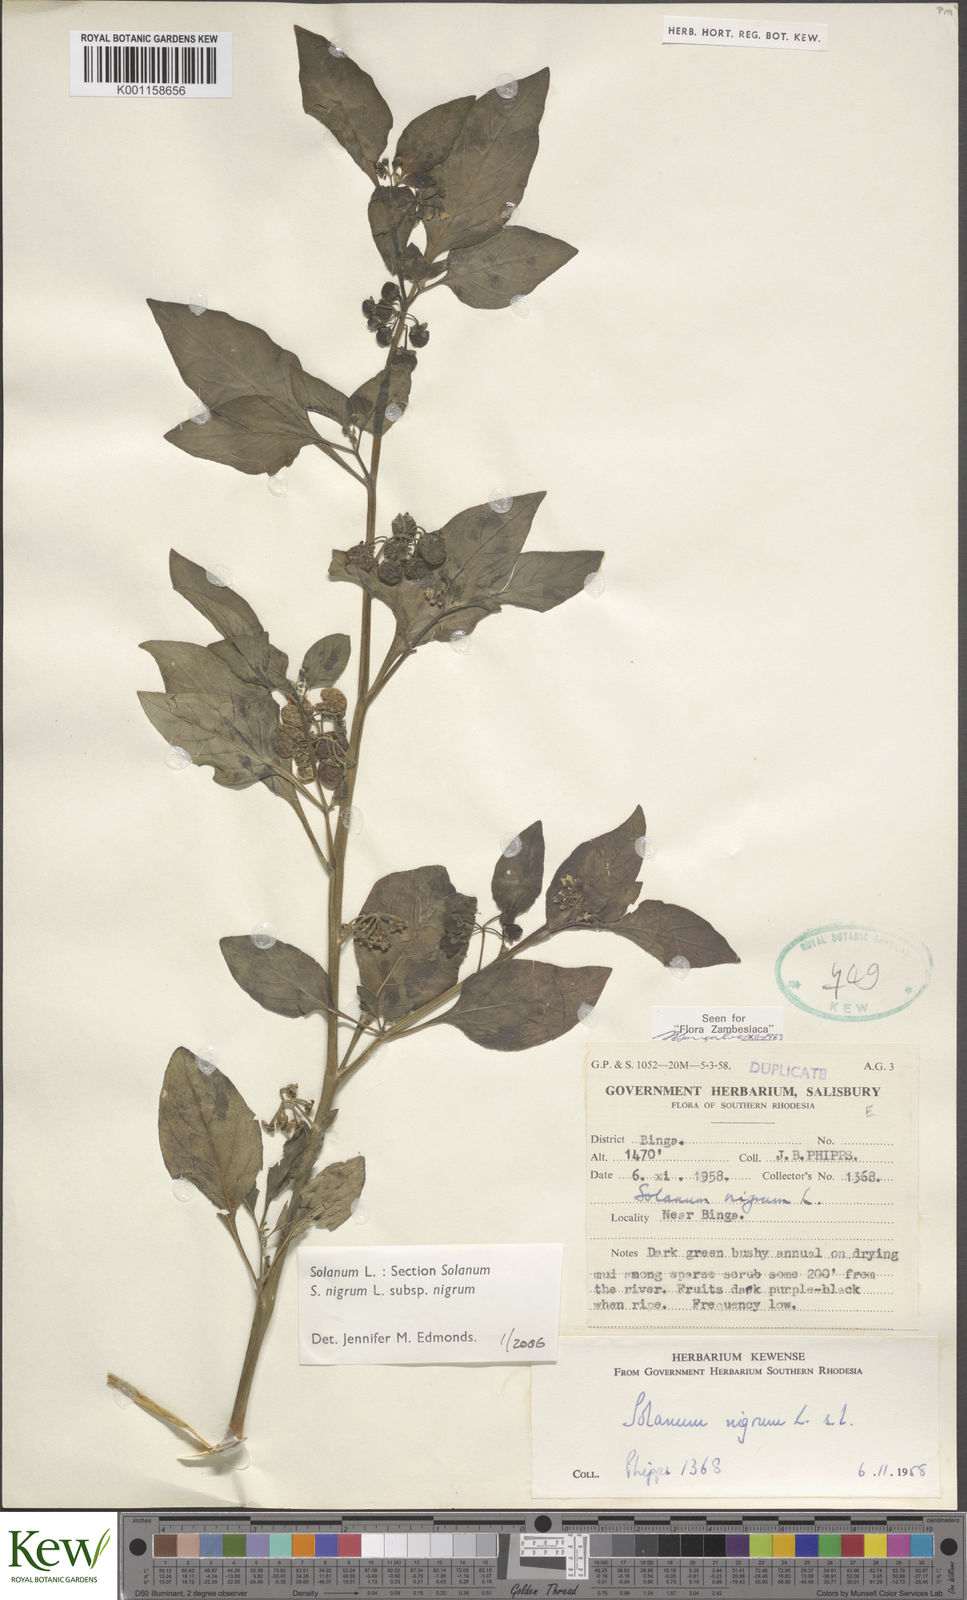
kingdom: Plantae
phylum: Tracheophyta
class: Magnoliopsida
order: Solanales
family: Solanaceae
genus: Solanum
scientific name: Solanum nigrum
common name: Black nightshade
